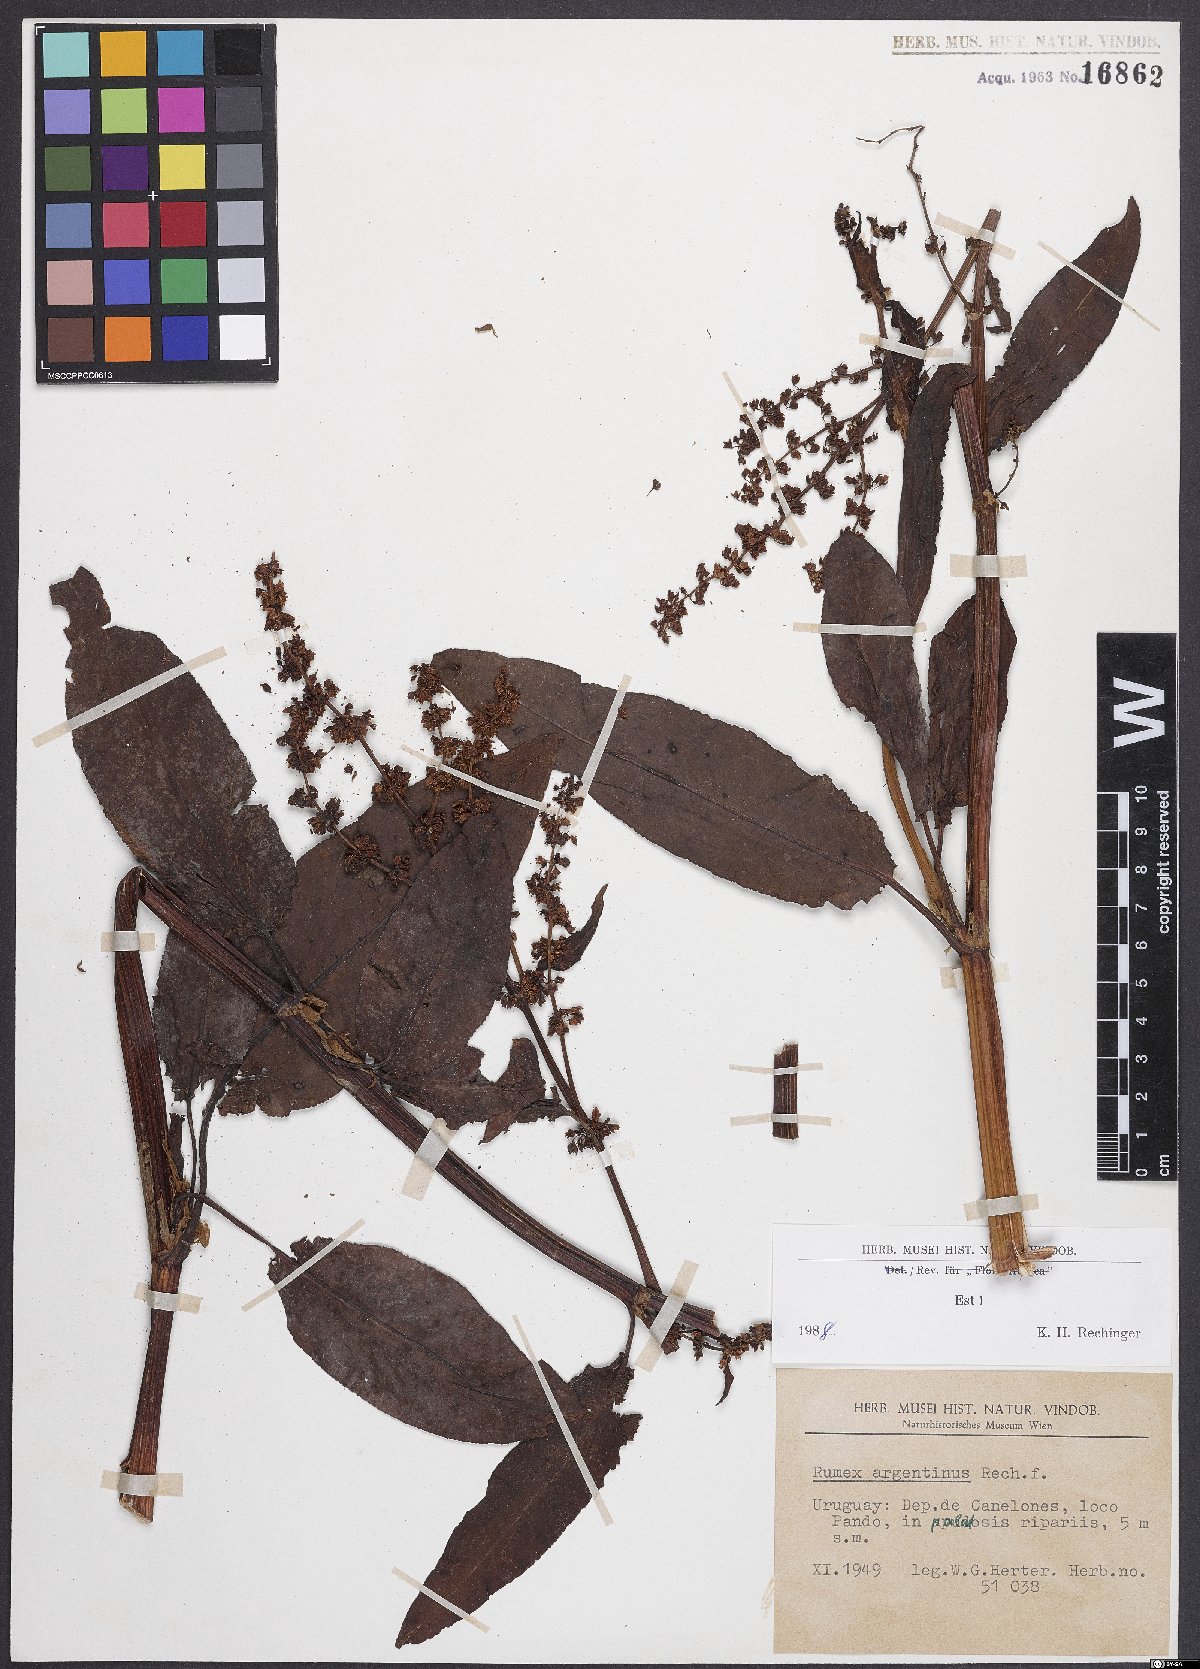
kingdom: Plantae
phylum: Tracheophyta
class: Magnoliopsida
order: Caryophyllales
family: Polygonaceae
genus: Rumex
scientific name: Rumex argentinus
